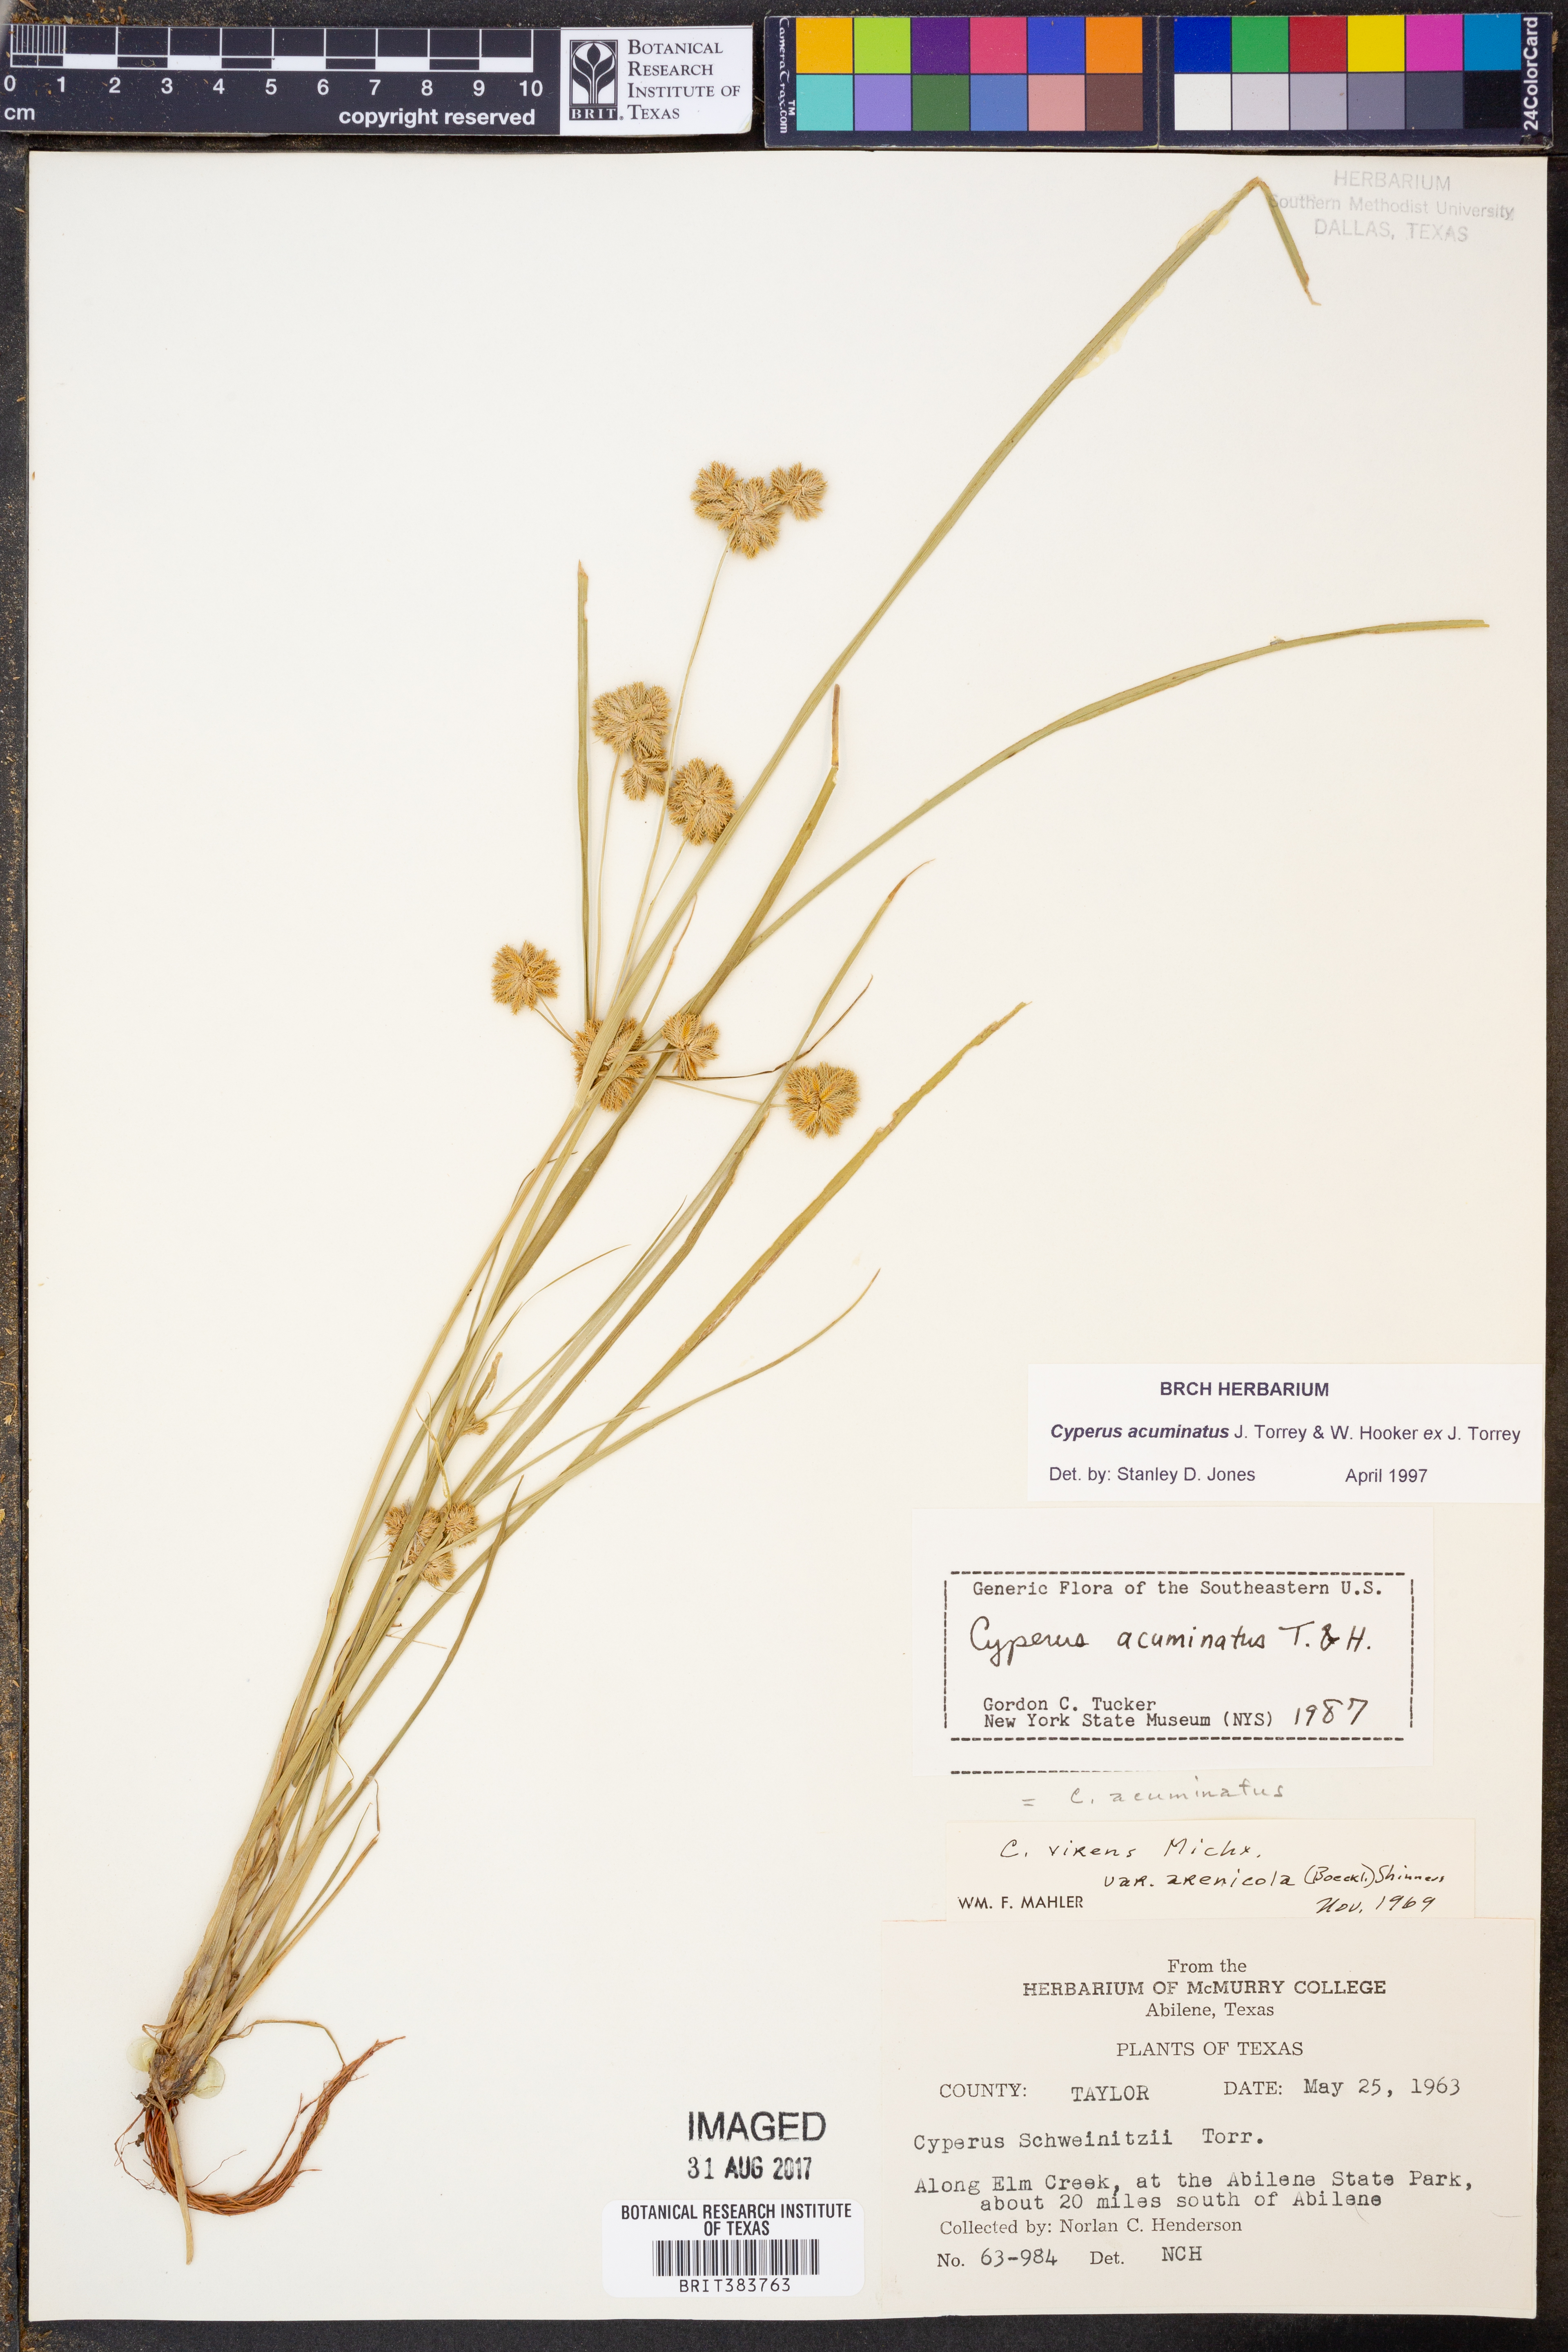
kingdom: Plantae
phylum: Tracheophyta
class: Liliopsida
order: Poales
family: Cyperaceae
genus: Cyperus
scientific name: Cyperus acuminatus
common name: Short-pointed cyperus
